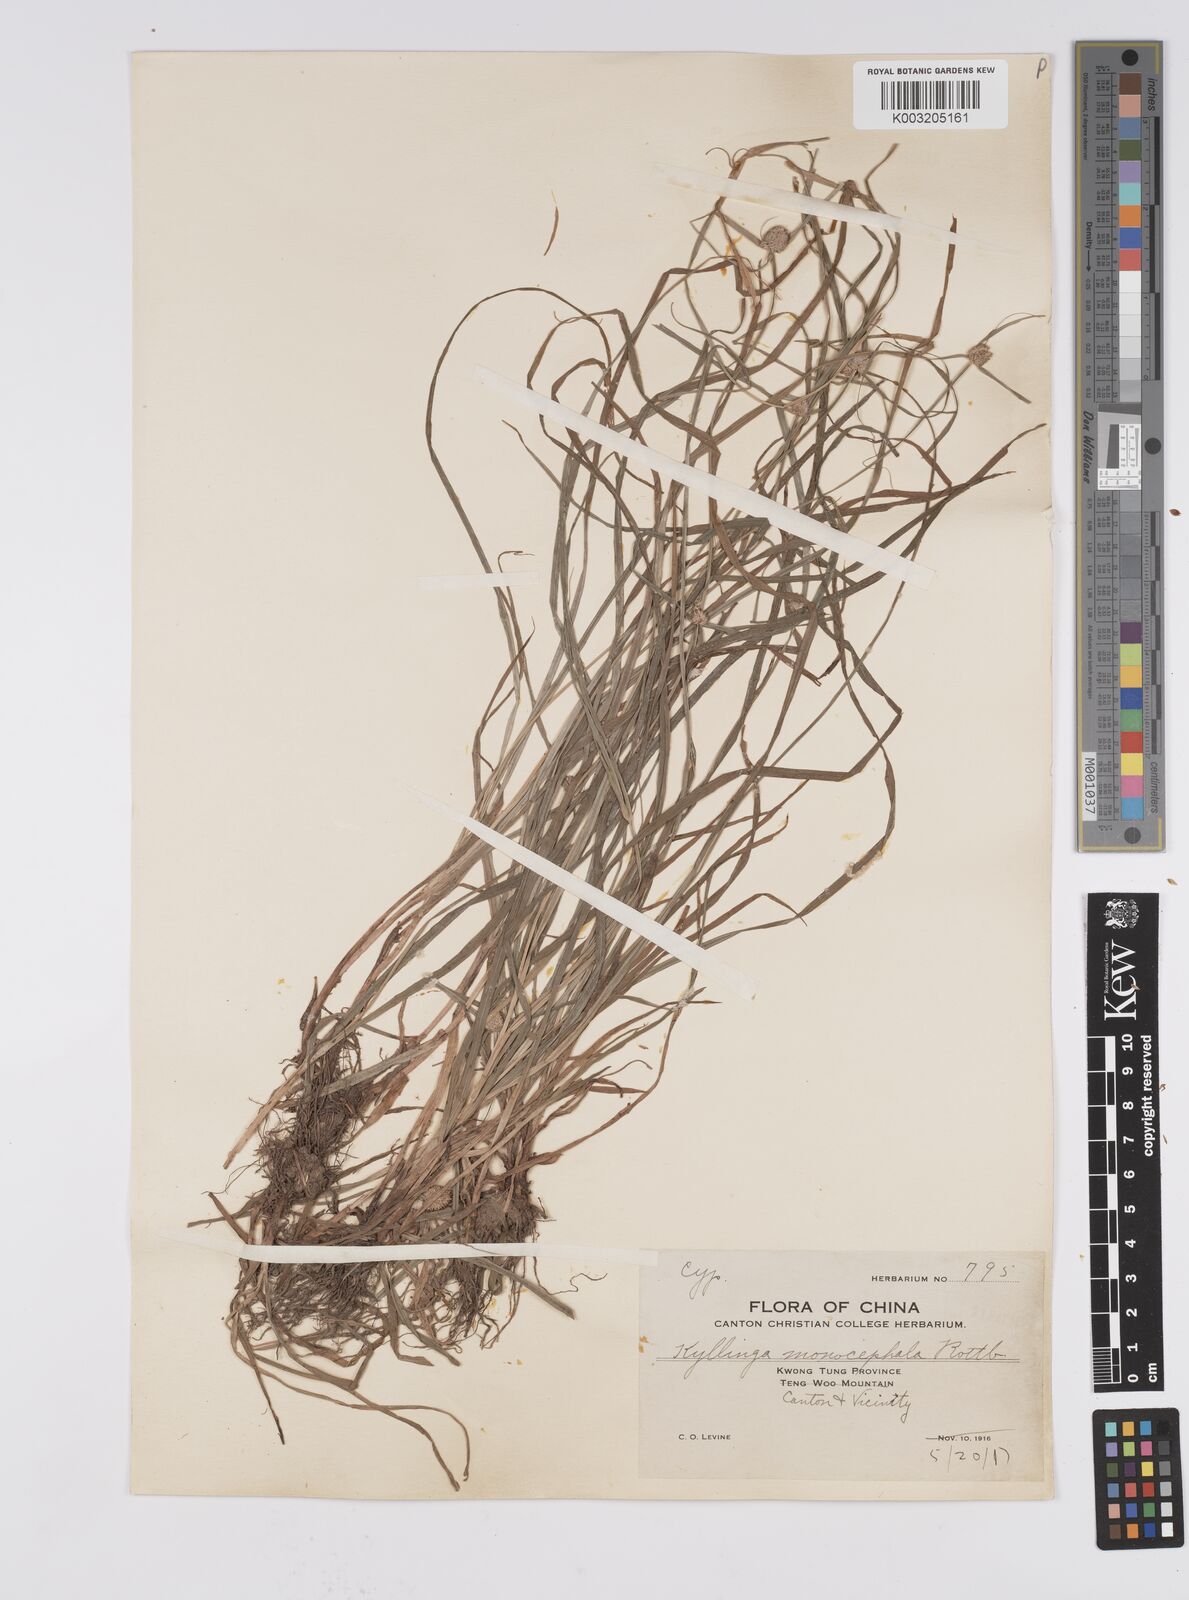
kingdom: Plantae
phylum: Tracheophyta
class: Liliopsida
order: Poales
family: Cyperaceae
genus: Cyperus
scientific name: Cyperus nemoralis
